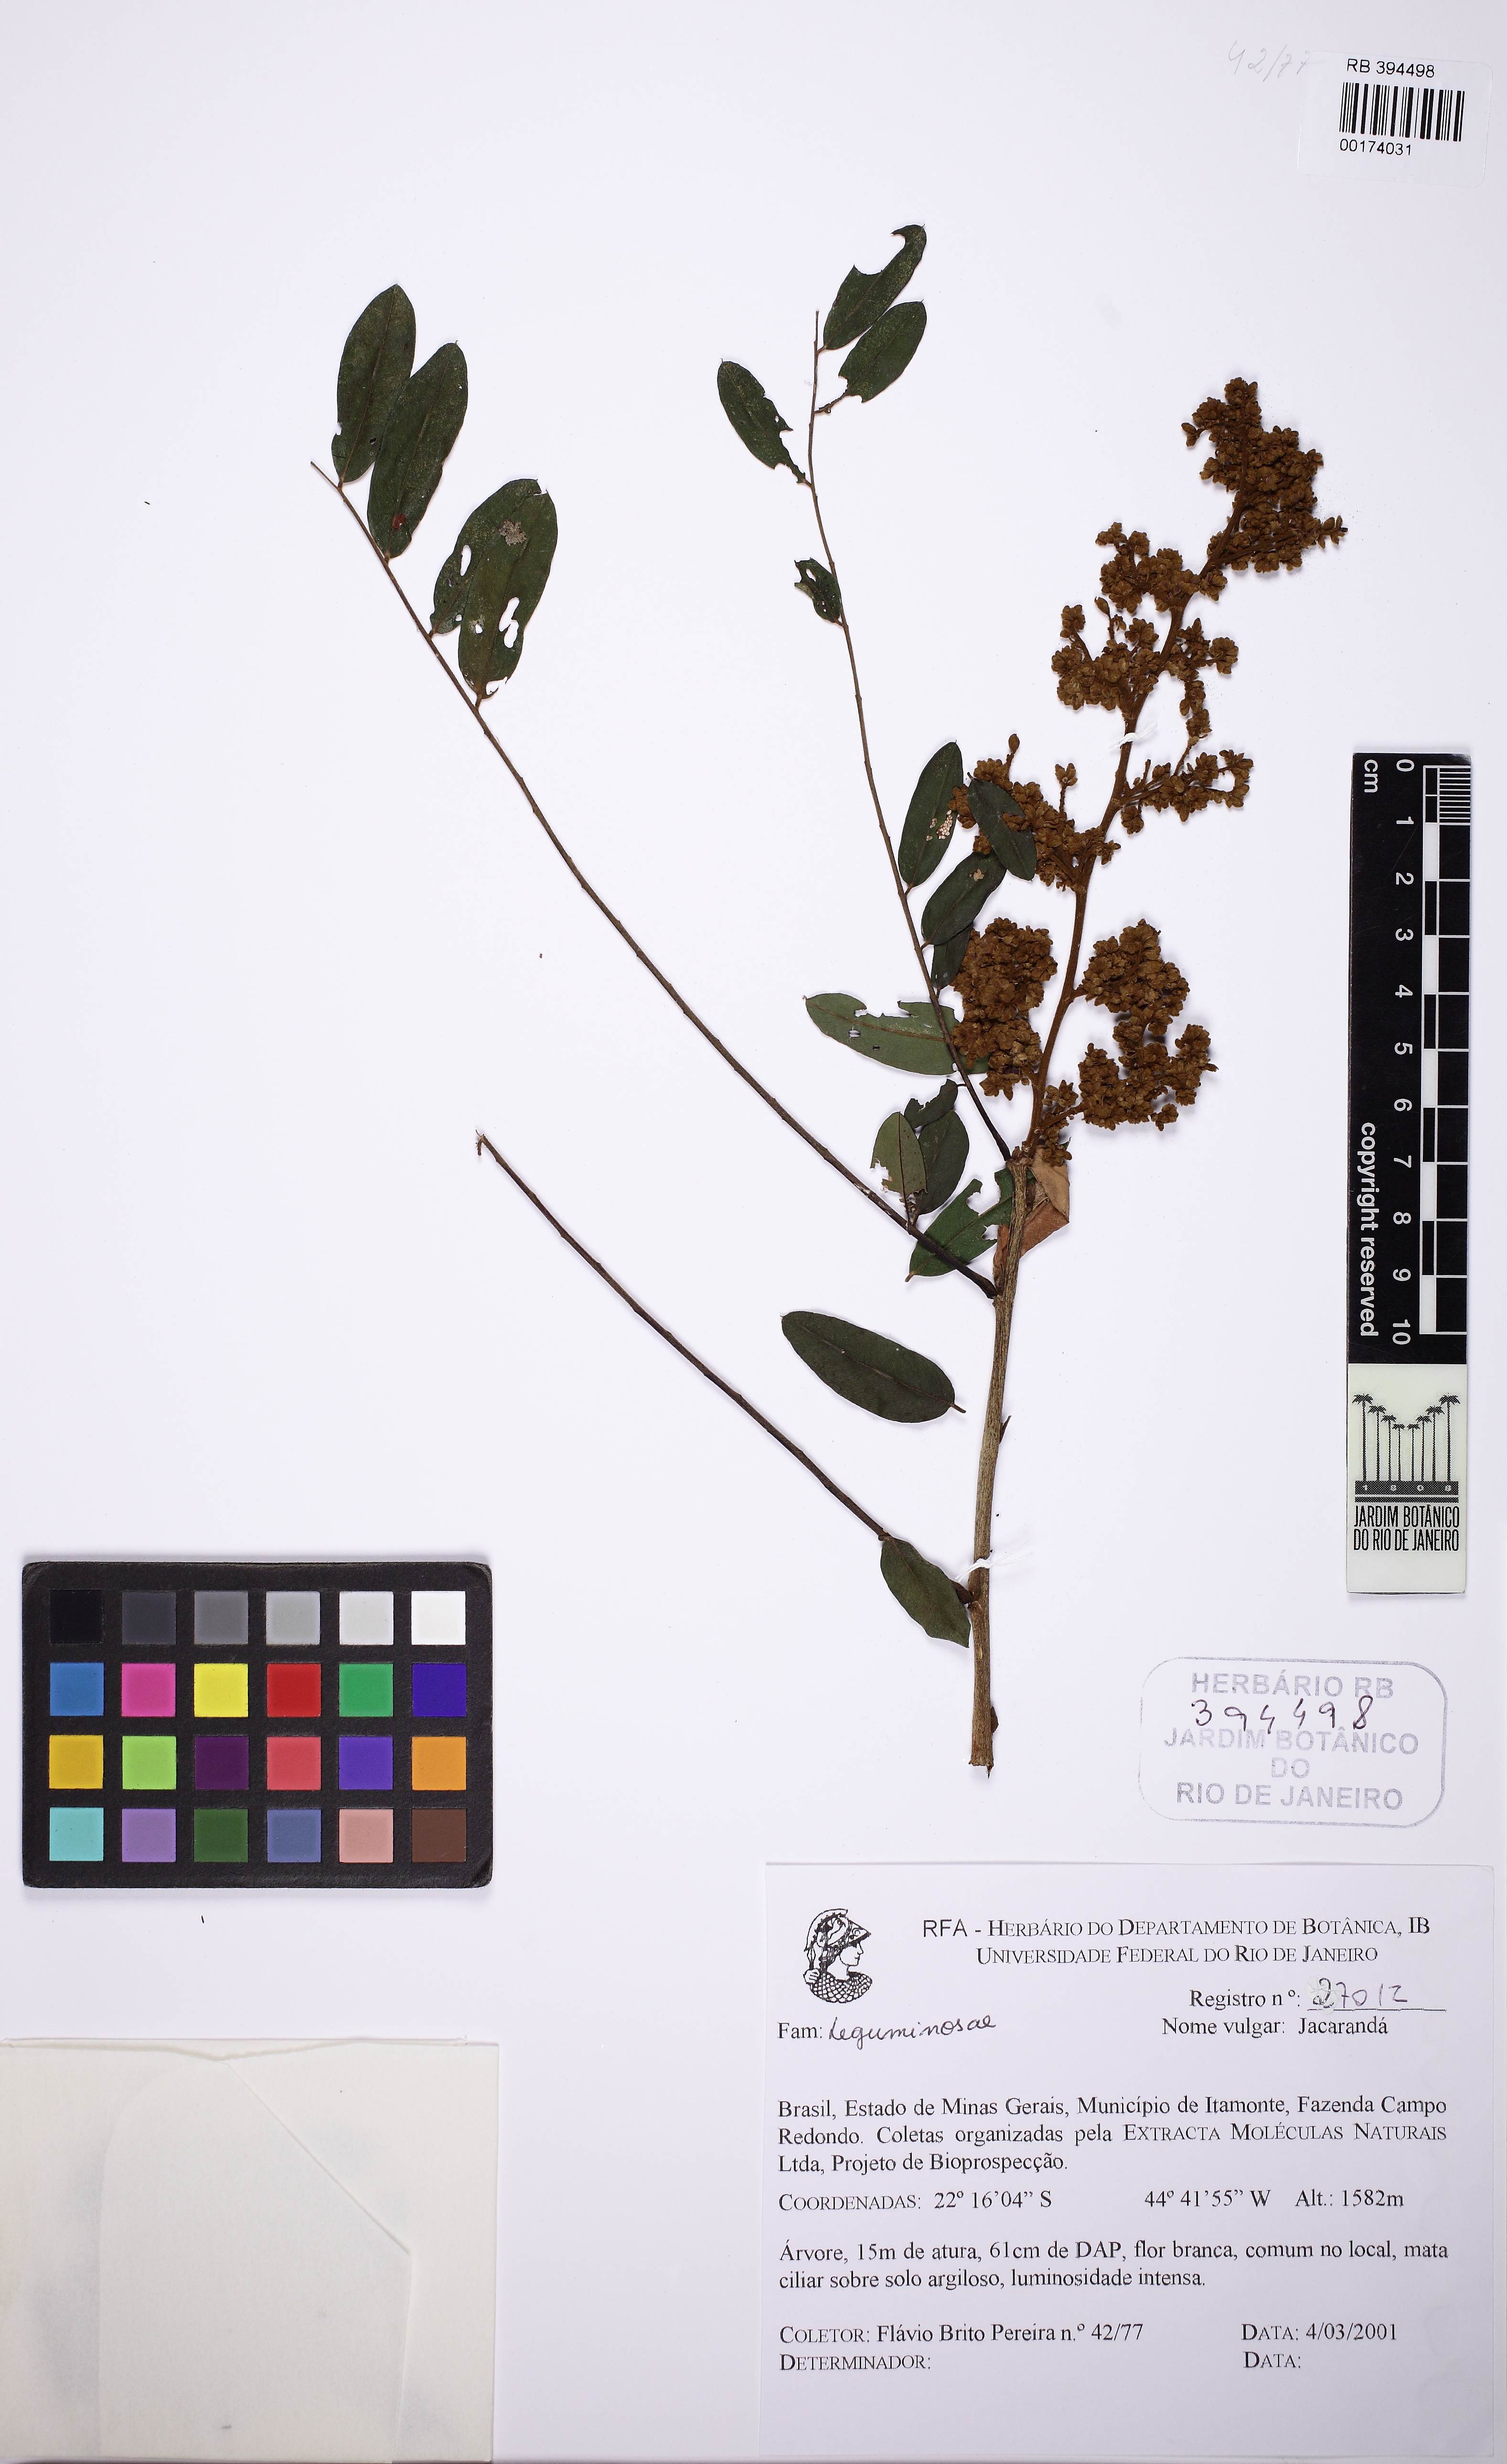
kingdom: Plantae
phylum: Tracheophyta
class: Magnoliopsida
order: Fabales
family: Fabaceae
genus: Dalbergia
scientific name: Dalbergia
